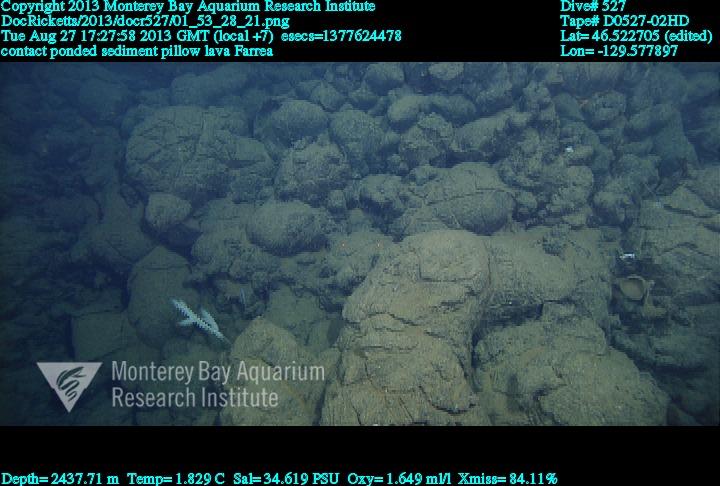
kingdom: Animalia
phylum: Porifera
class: Hexactinellida
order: Sceptrulophora
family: Farreidae
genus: Farrea
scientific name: Farrea
